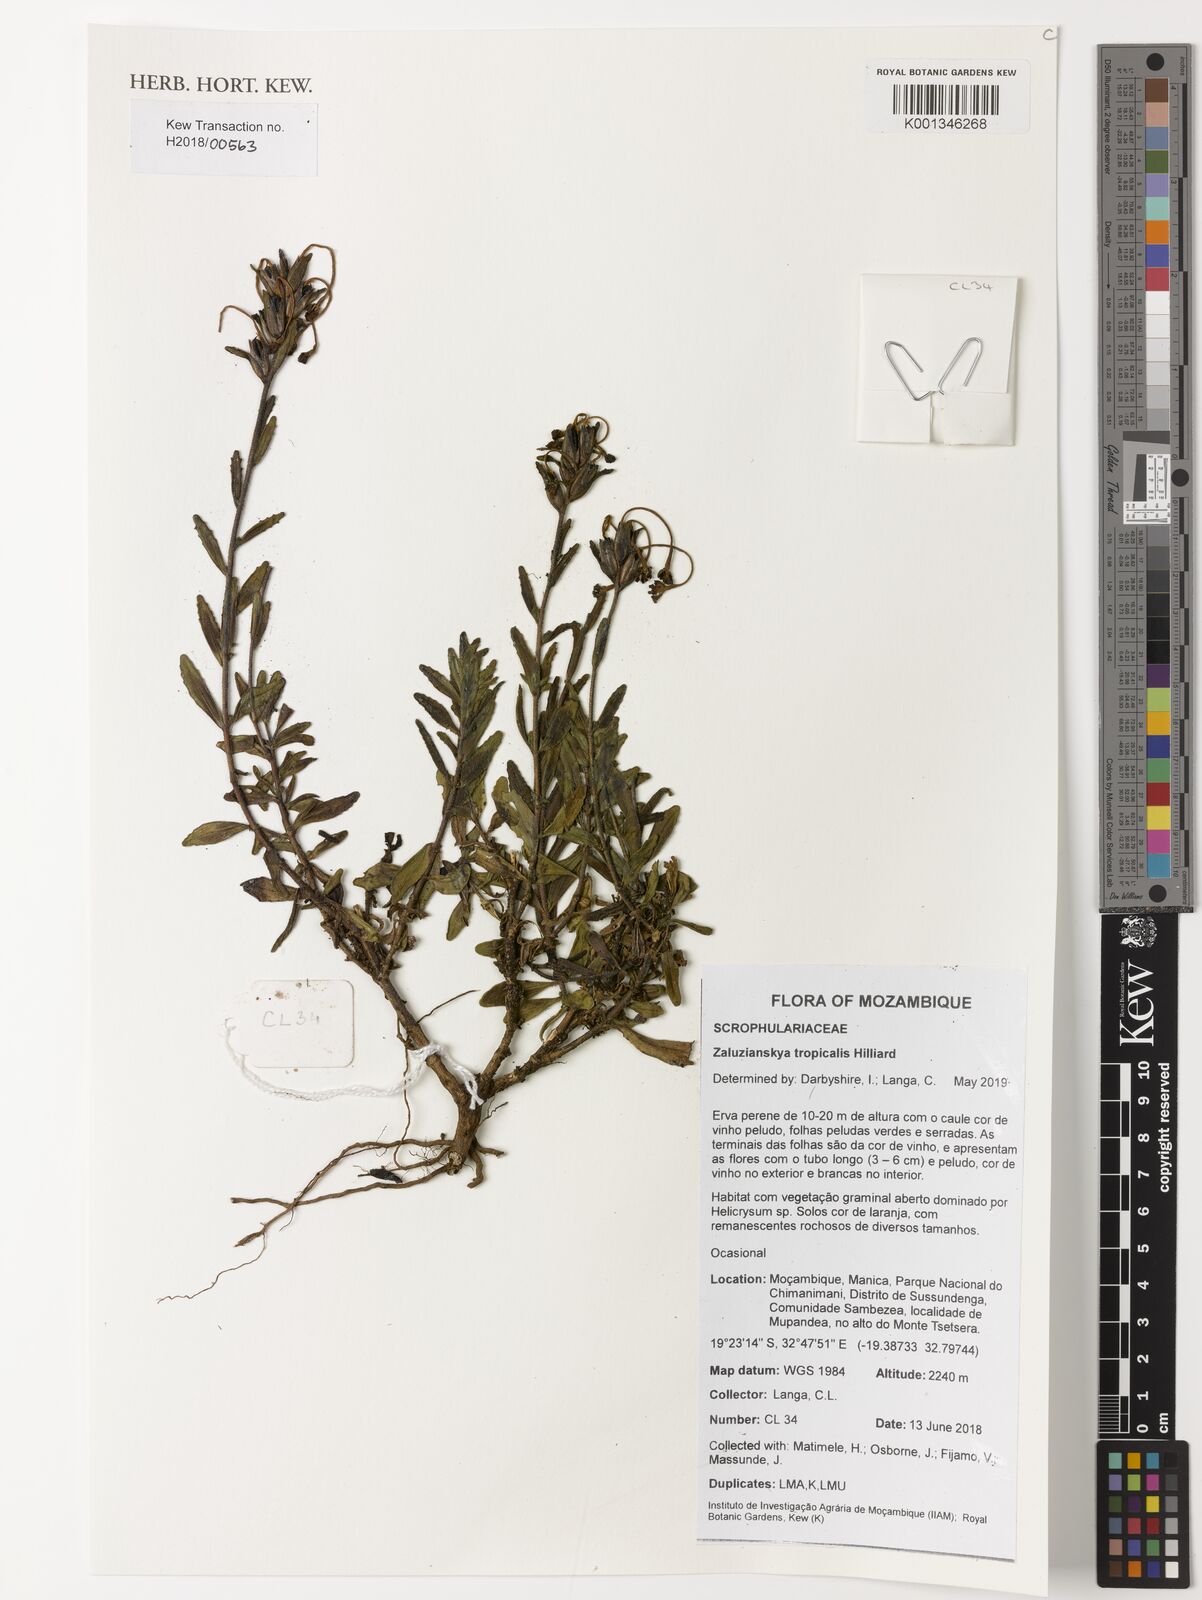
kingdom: Plantae
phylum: Tracheophyta
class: Magnoliopsida
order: Lamiales
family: Scrophulariaceae
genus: Zaluzianskya
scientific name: Zaluzianskya tropicalis
